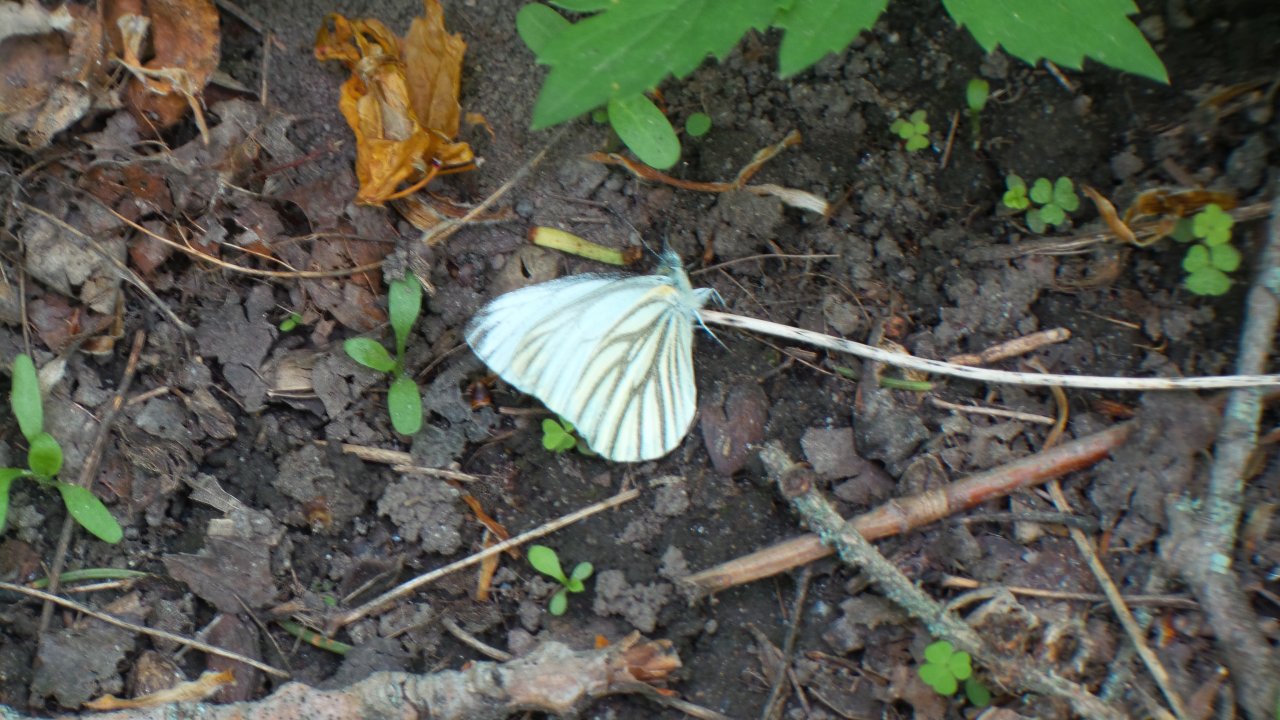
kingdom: Animalia
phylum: Arthropoda
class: Insecta
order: Lepidoptera
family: Pieridae
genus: Pieris
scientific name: Pieris oleracea
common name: Mustard White
